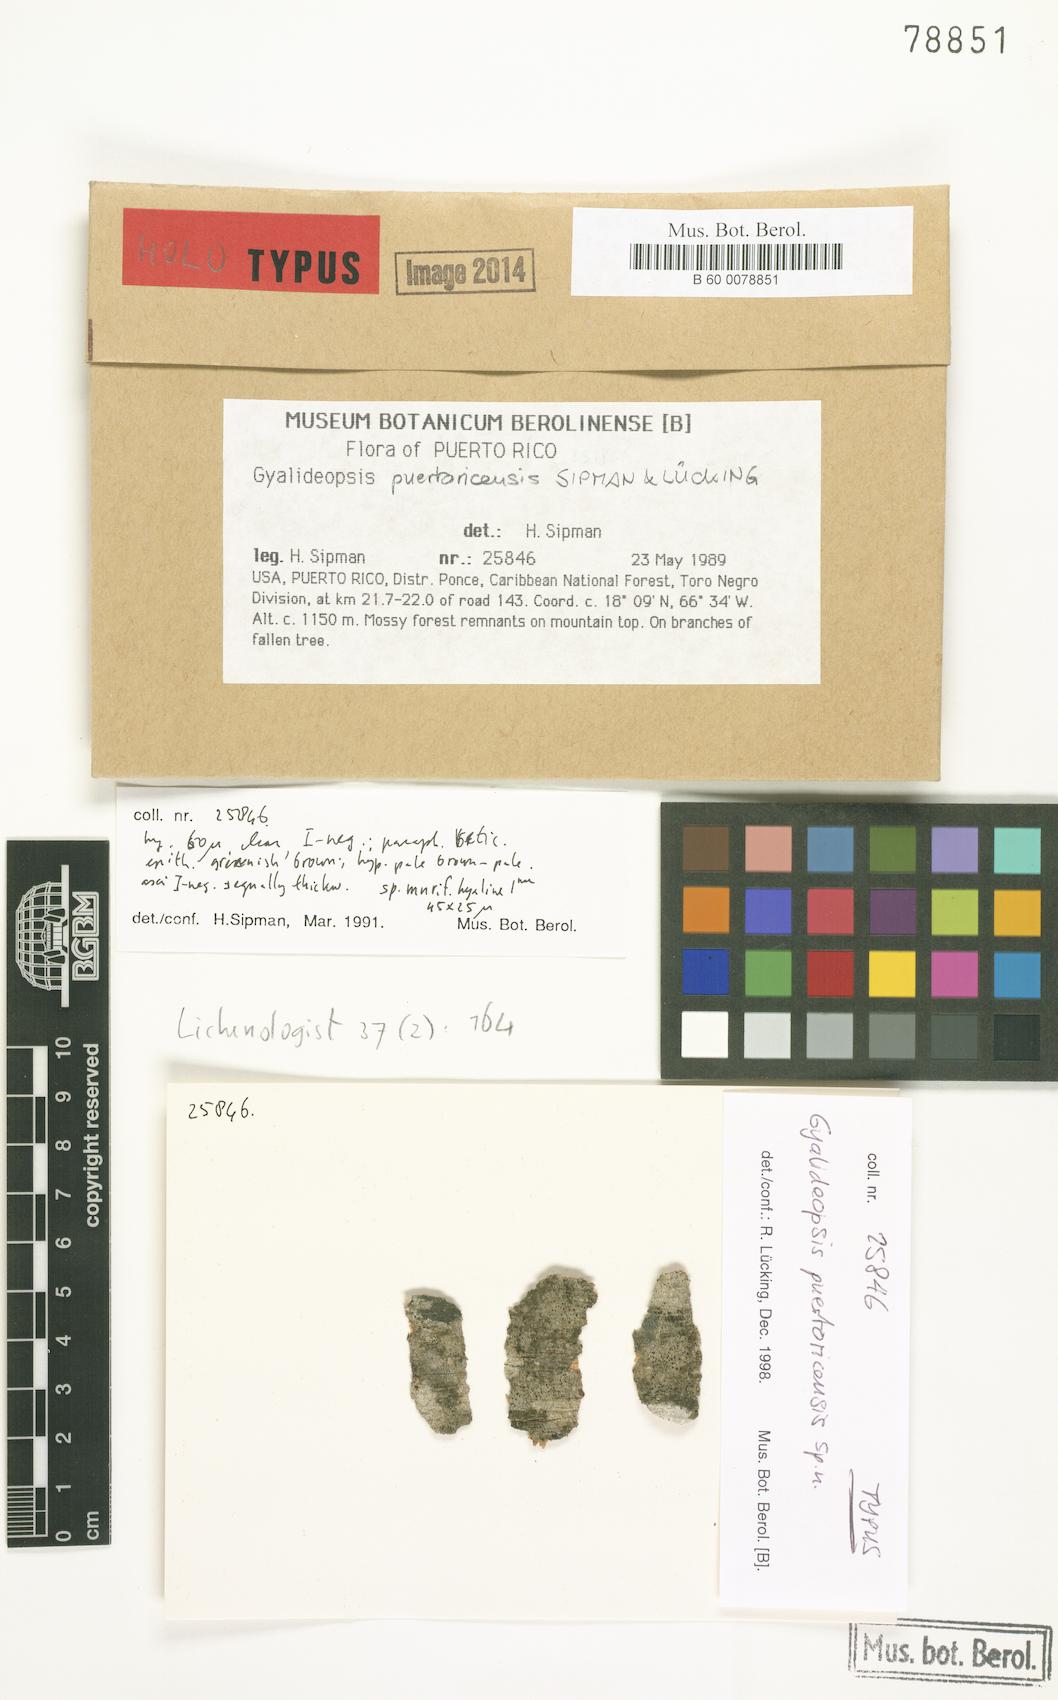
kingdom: Fungi
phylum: Ascomycota
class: Lecanoromycetes
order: Ostropales
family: Gomphillaceae
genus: Gyalideopsis
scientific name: Gyalideopsis puertoricensis
